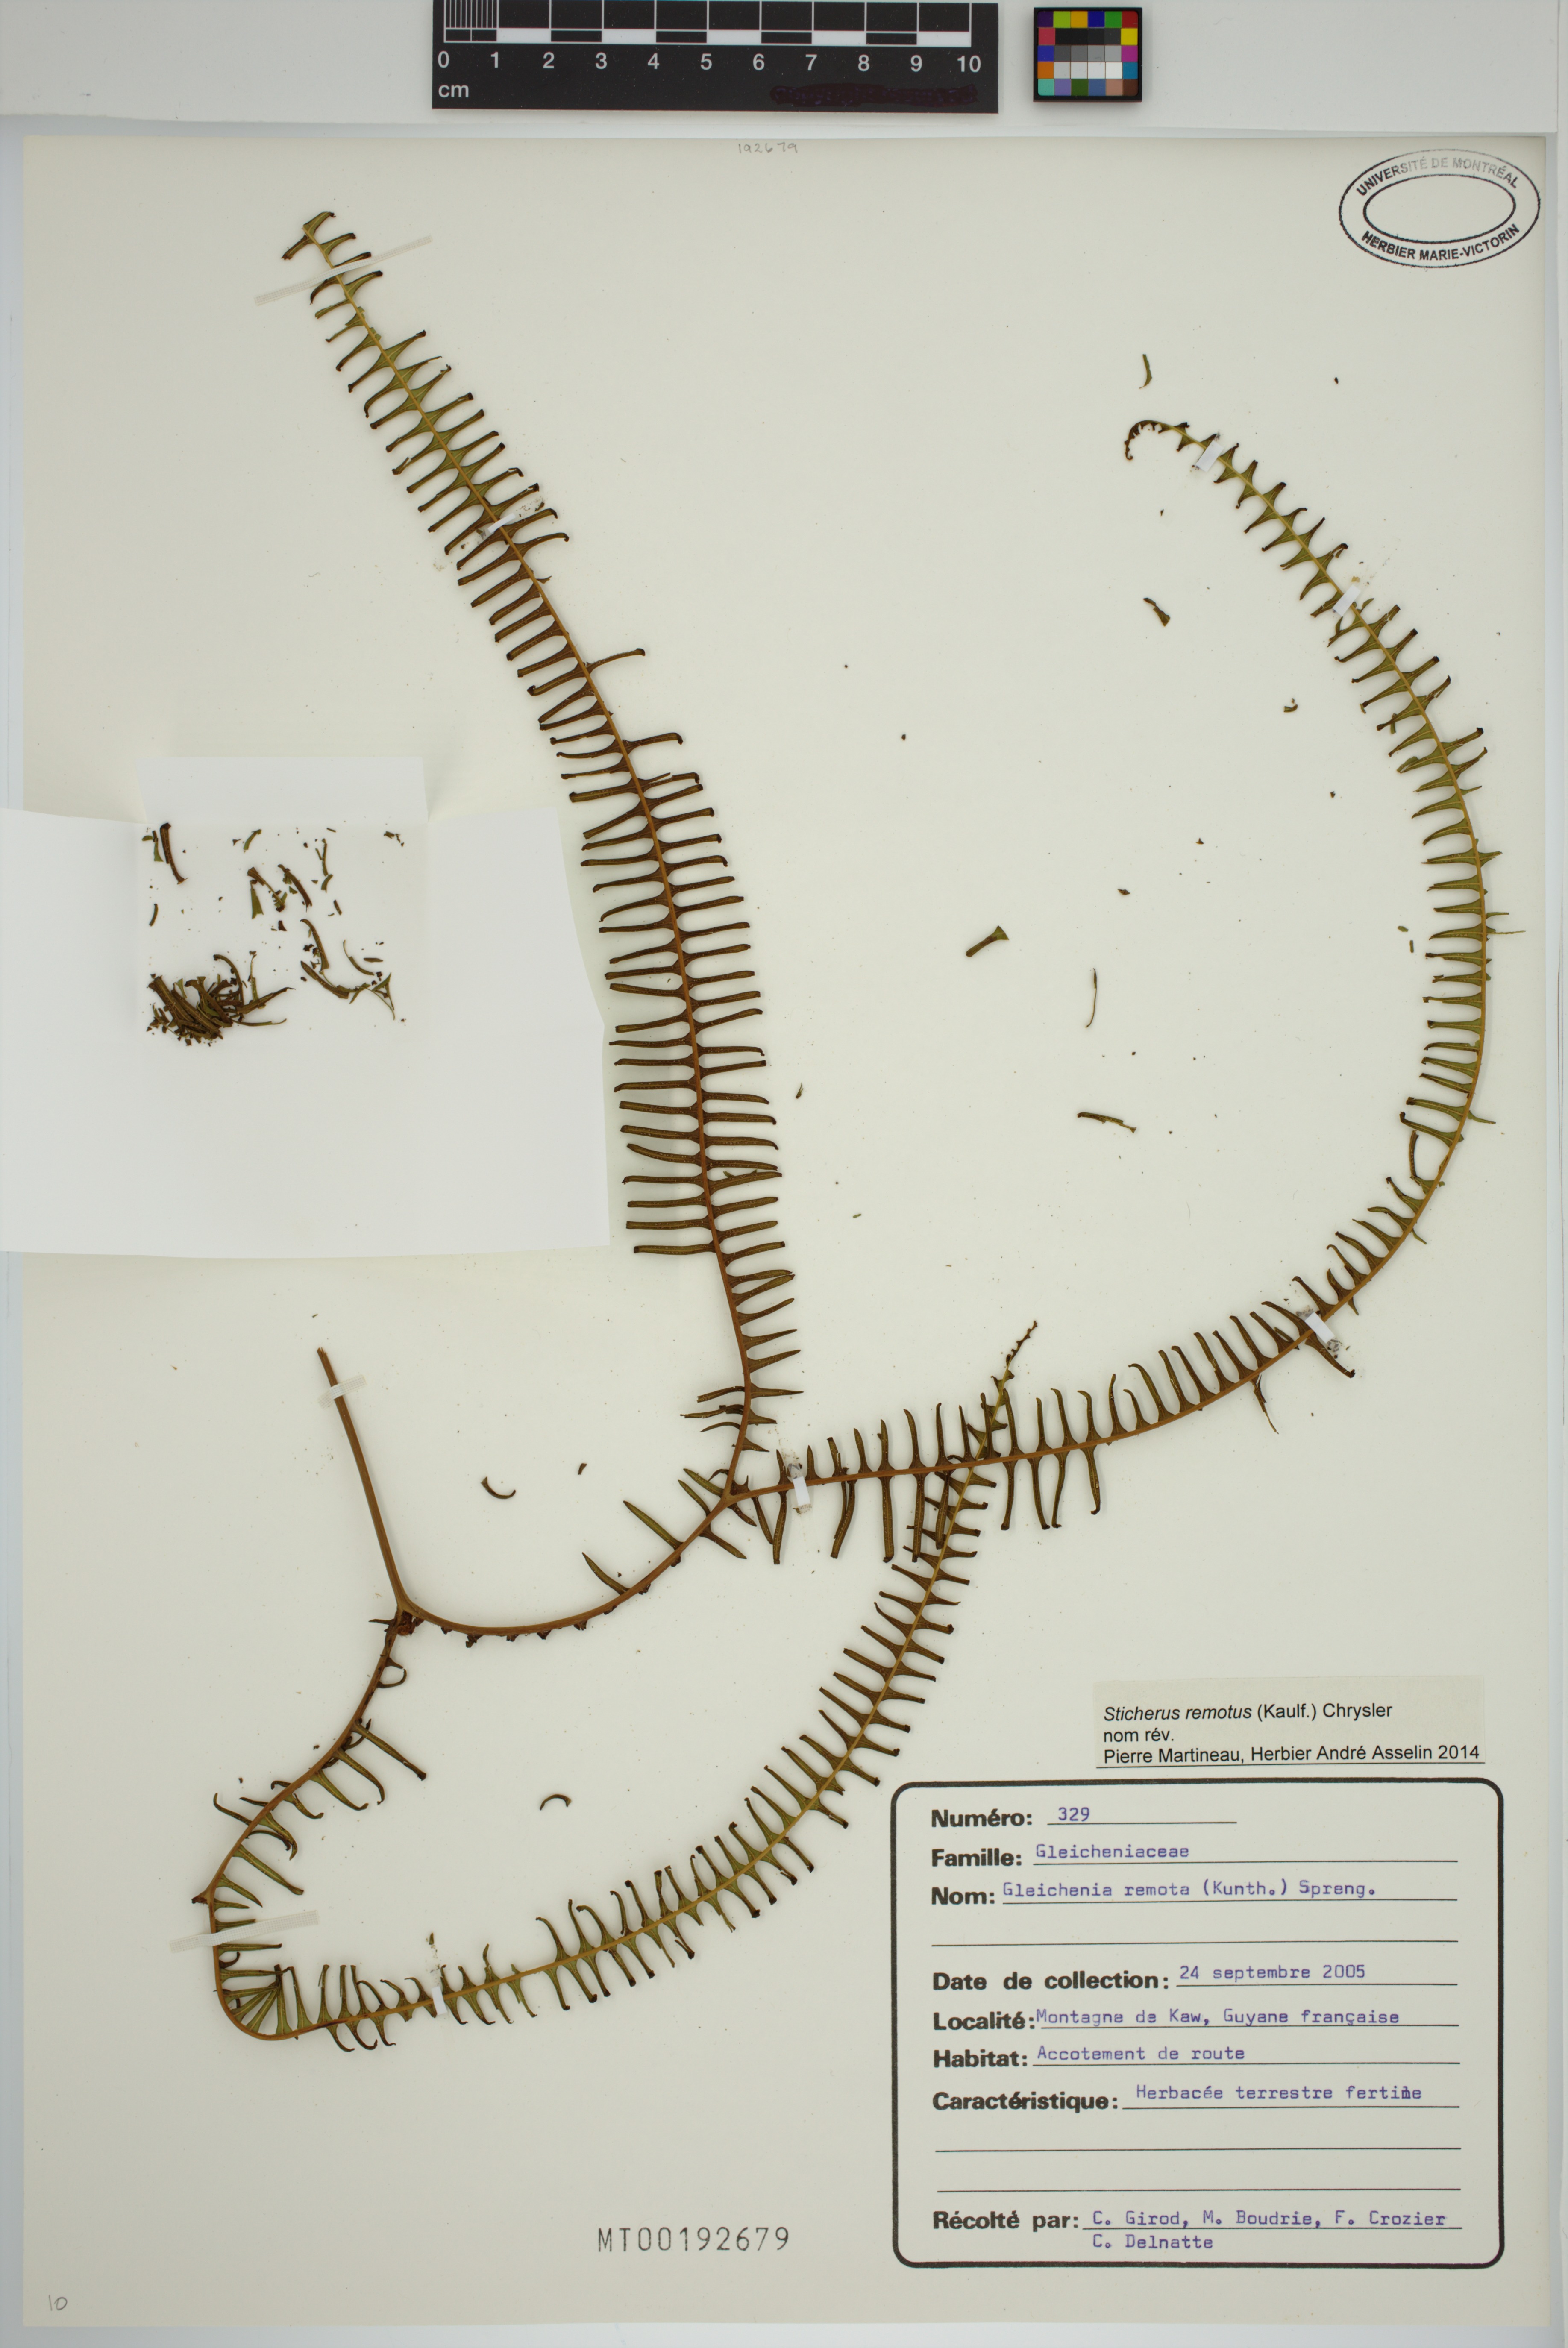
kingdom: Plantae
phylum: Tracheophyta
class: Polypodiopsida
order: Gleicheniales
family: Gleicheniaceae
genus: Sticherus
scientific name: Sticherus remotus
